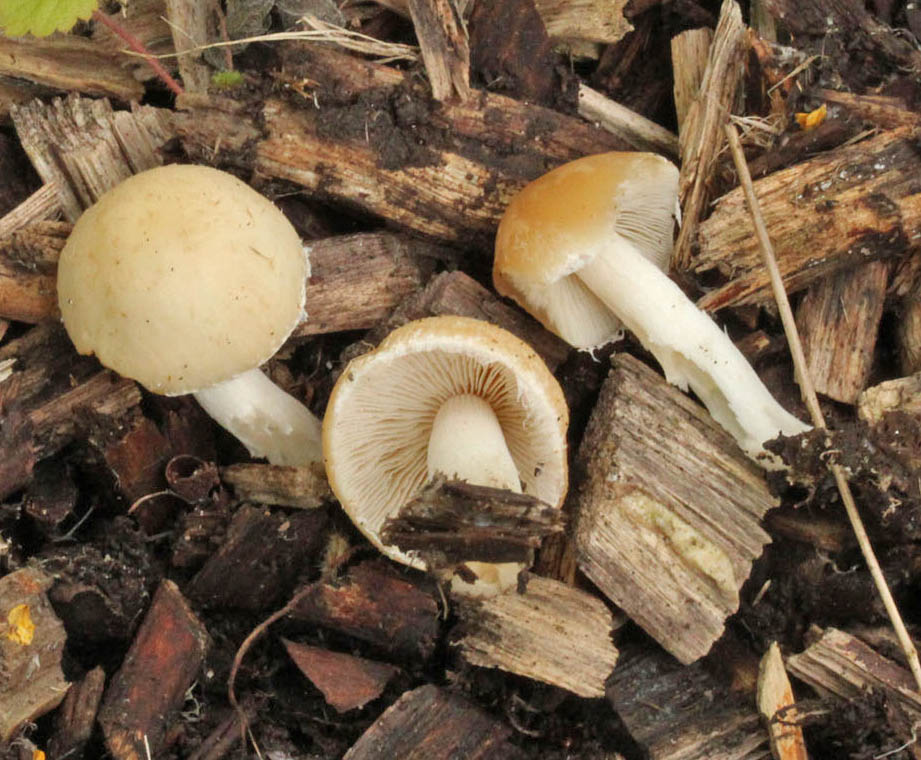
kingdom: Fungi
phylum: Basidiomycota
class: Agaricomycetes
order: Agaricales
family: Psathyrellaceae
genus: Candolleomyces
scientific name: Candolleomyces candolleanus
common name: Candolles mørkhat
